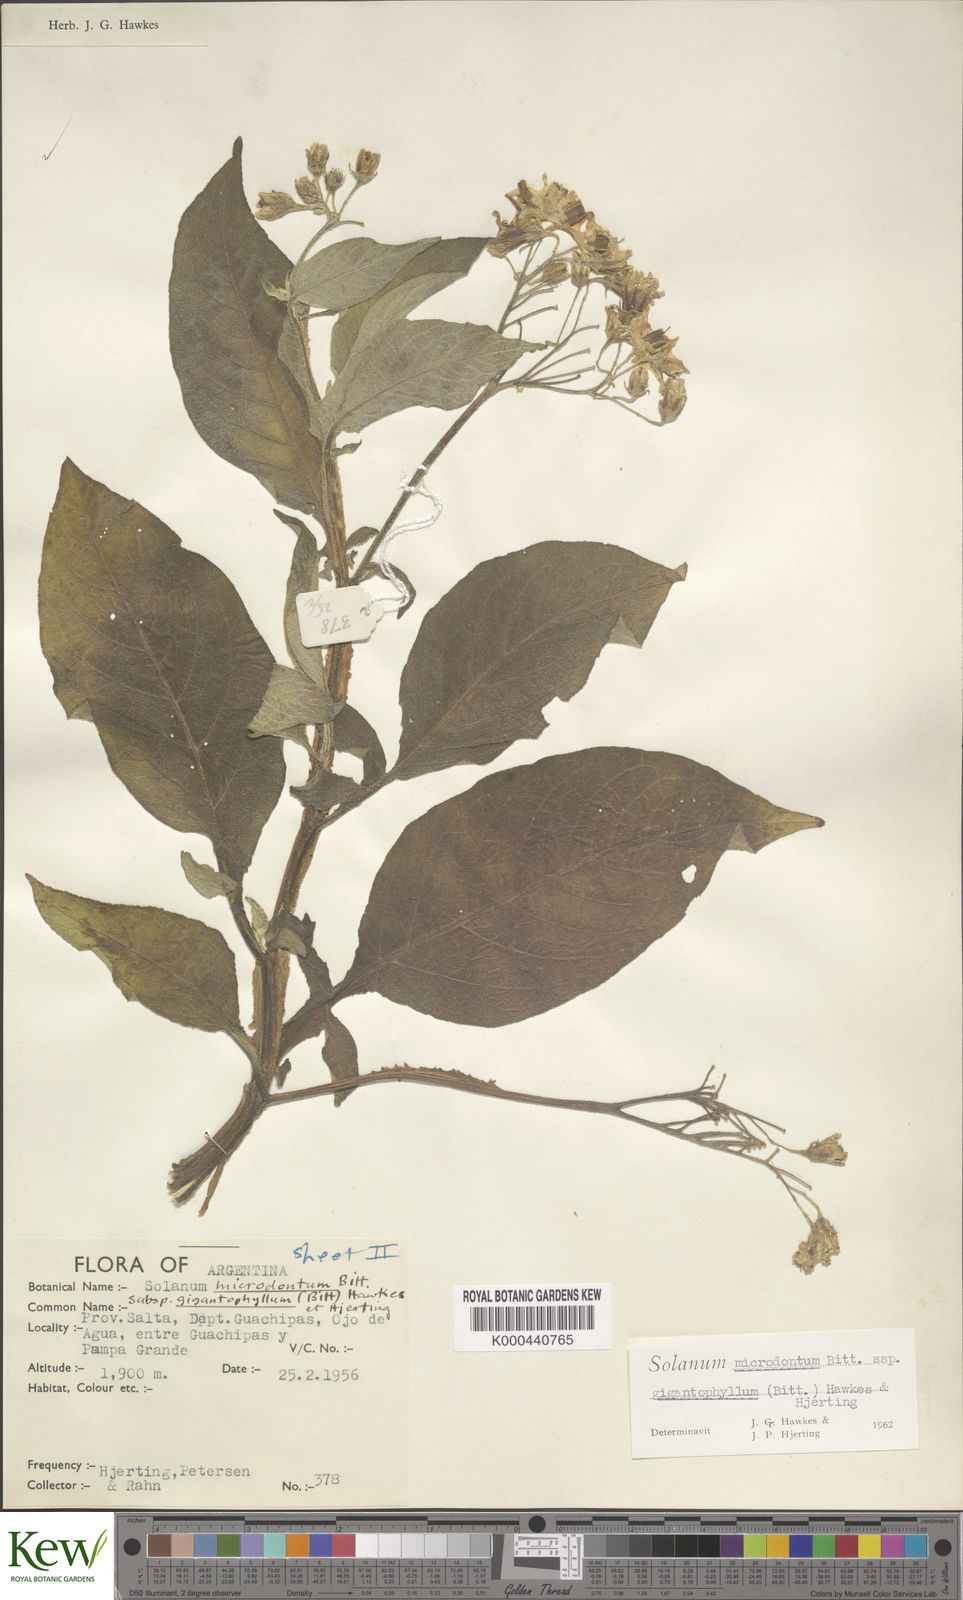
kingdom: Plantae
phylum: Tracheophyta
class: Magnoliopsida
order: Solanales
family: Solanaceae
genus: Solanum
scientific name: Solanum microdontum
